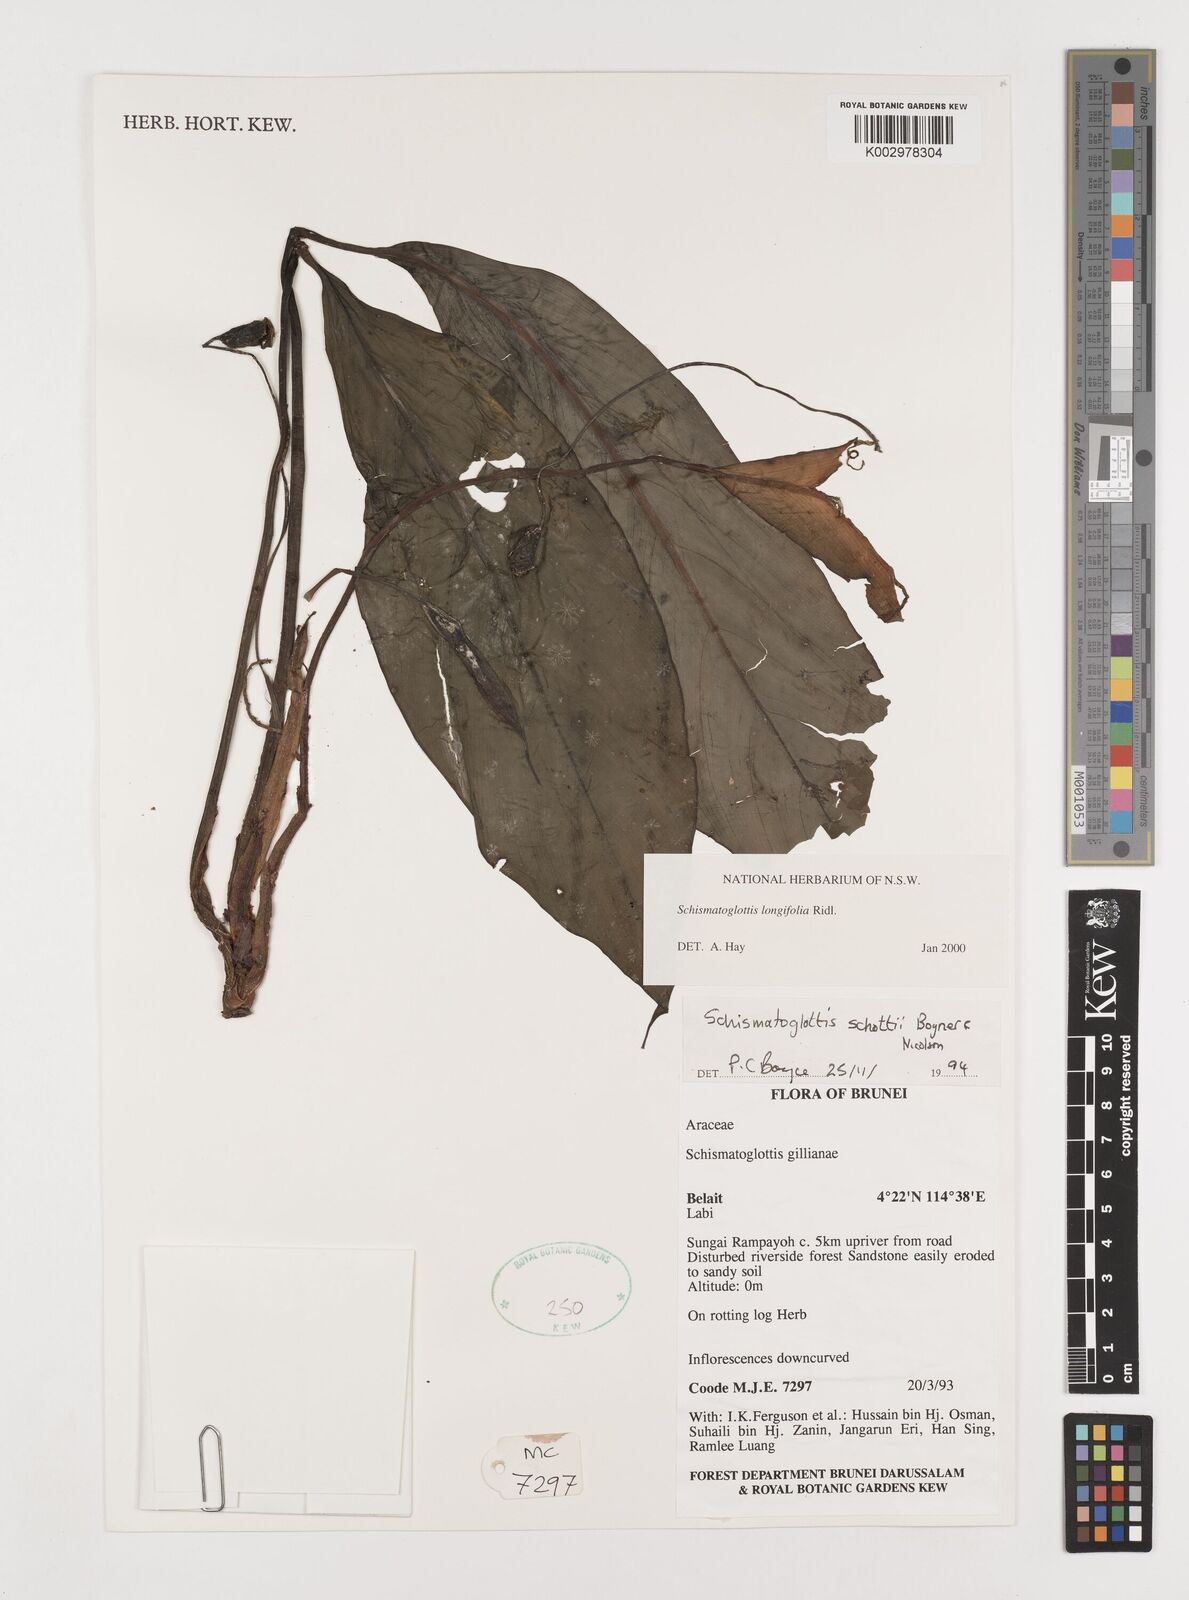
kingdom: Plantae
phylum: Tracheophyta
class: Liliopsida
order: Alismatales
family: Araceae
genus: Vesta
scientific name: Vesta longifolia
